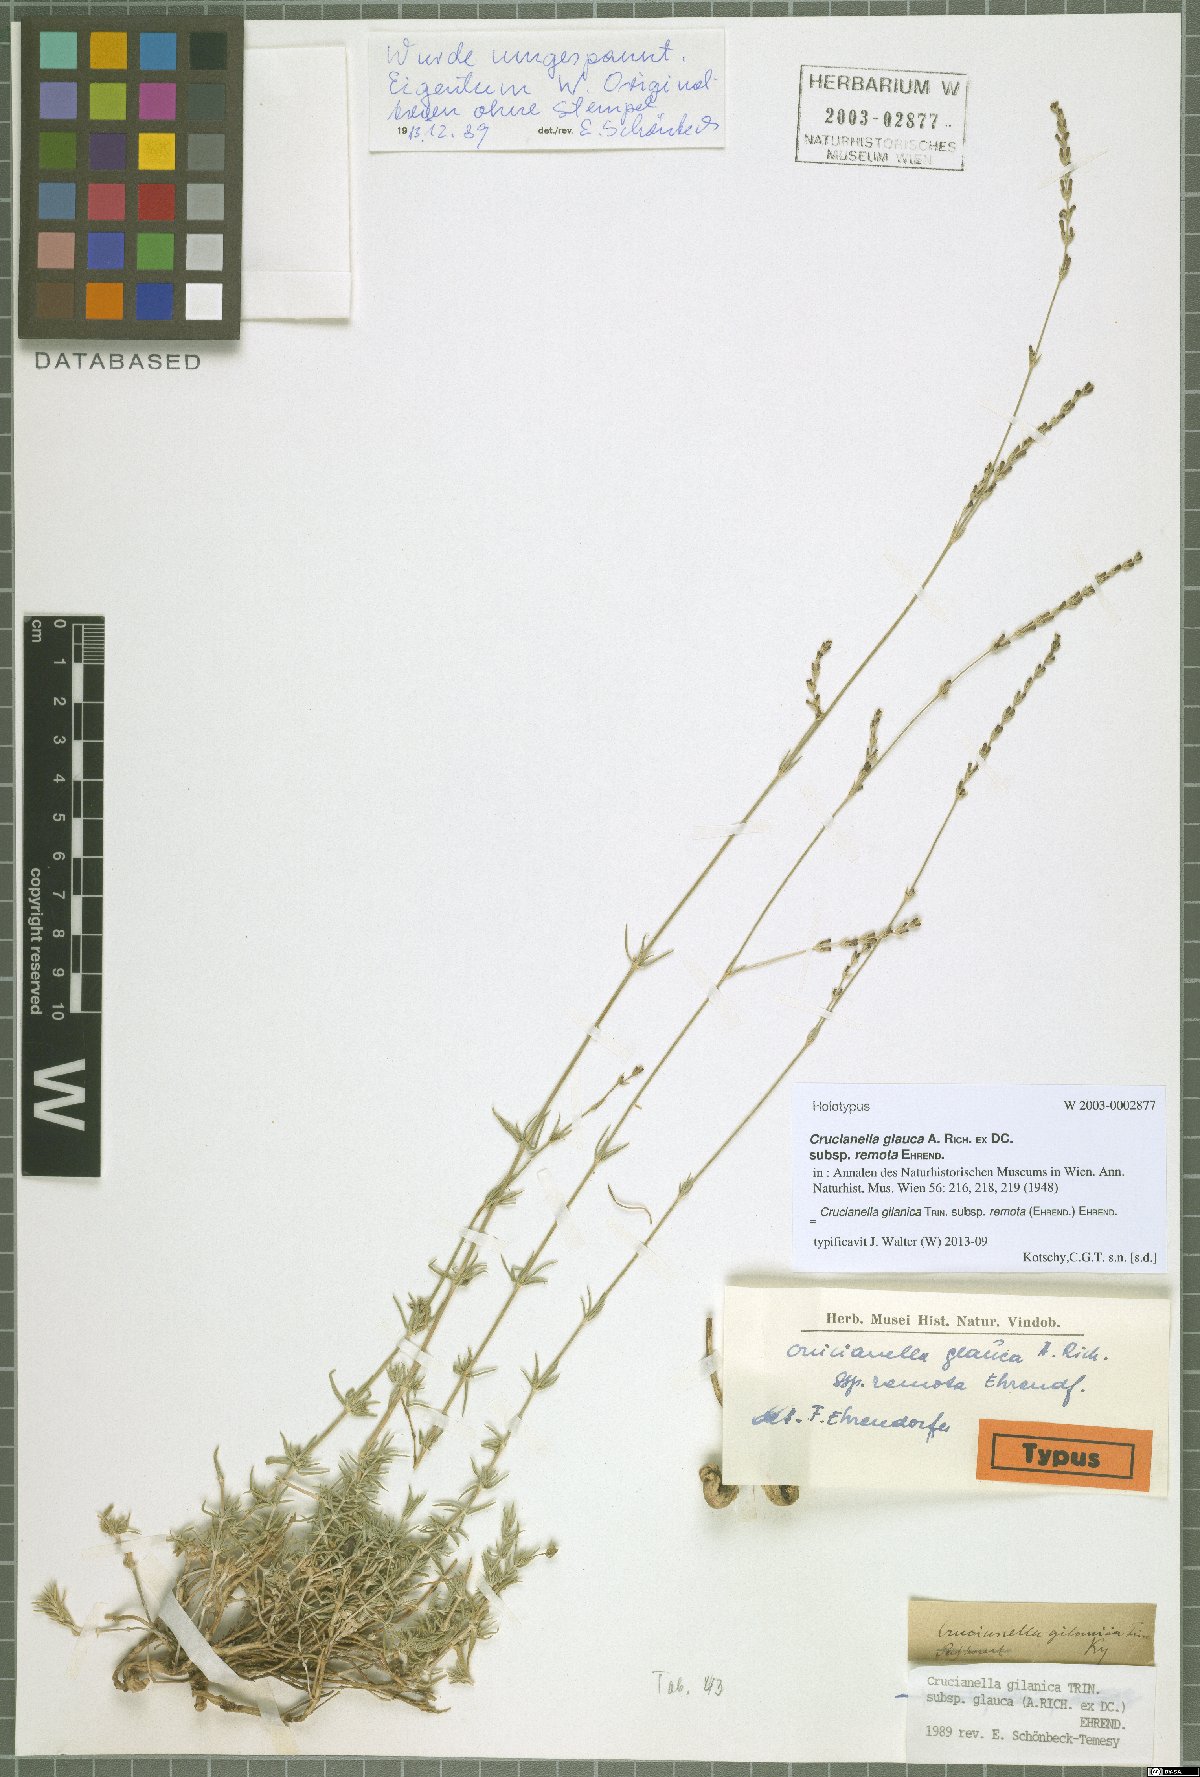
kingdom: Plantae
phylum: Tracheophyta
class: Magnoliopsida
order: Gentianales
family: Rubiaceae
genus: Crucianella
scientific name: Crucianella gilanica
